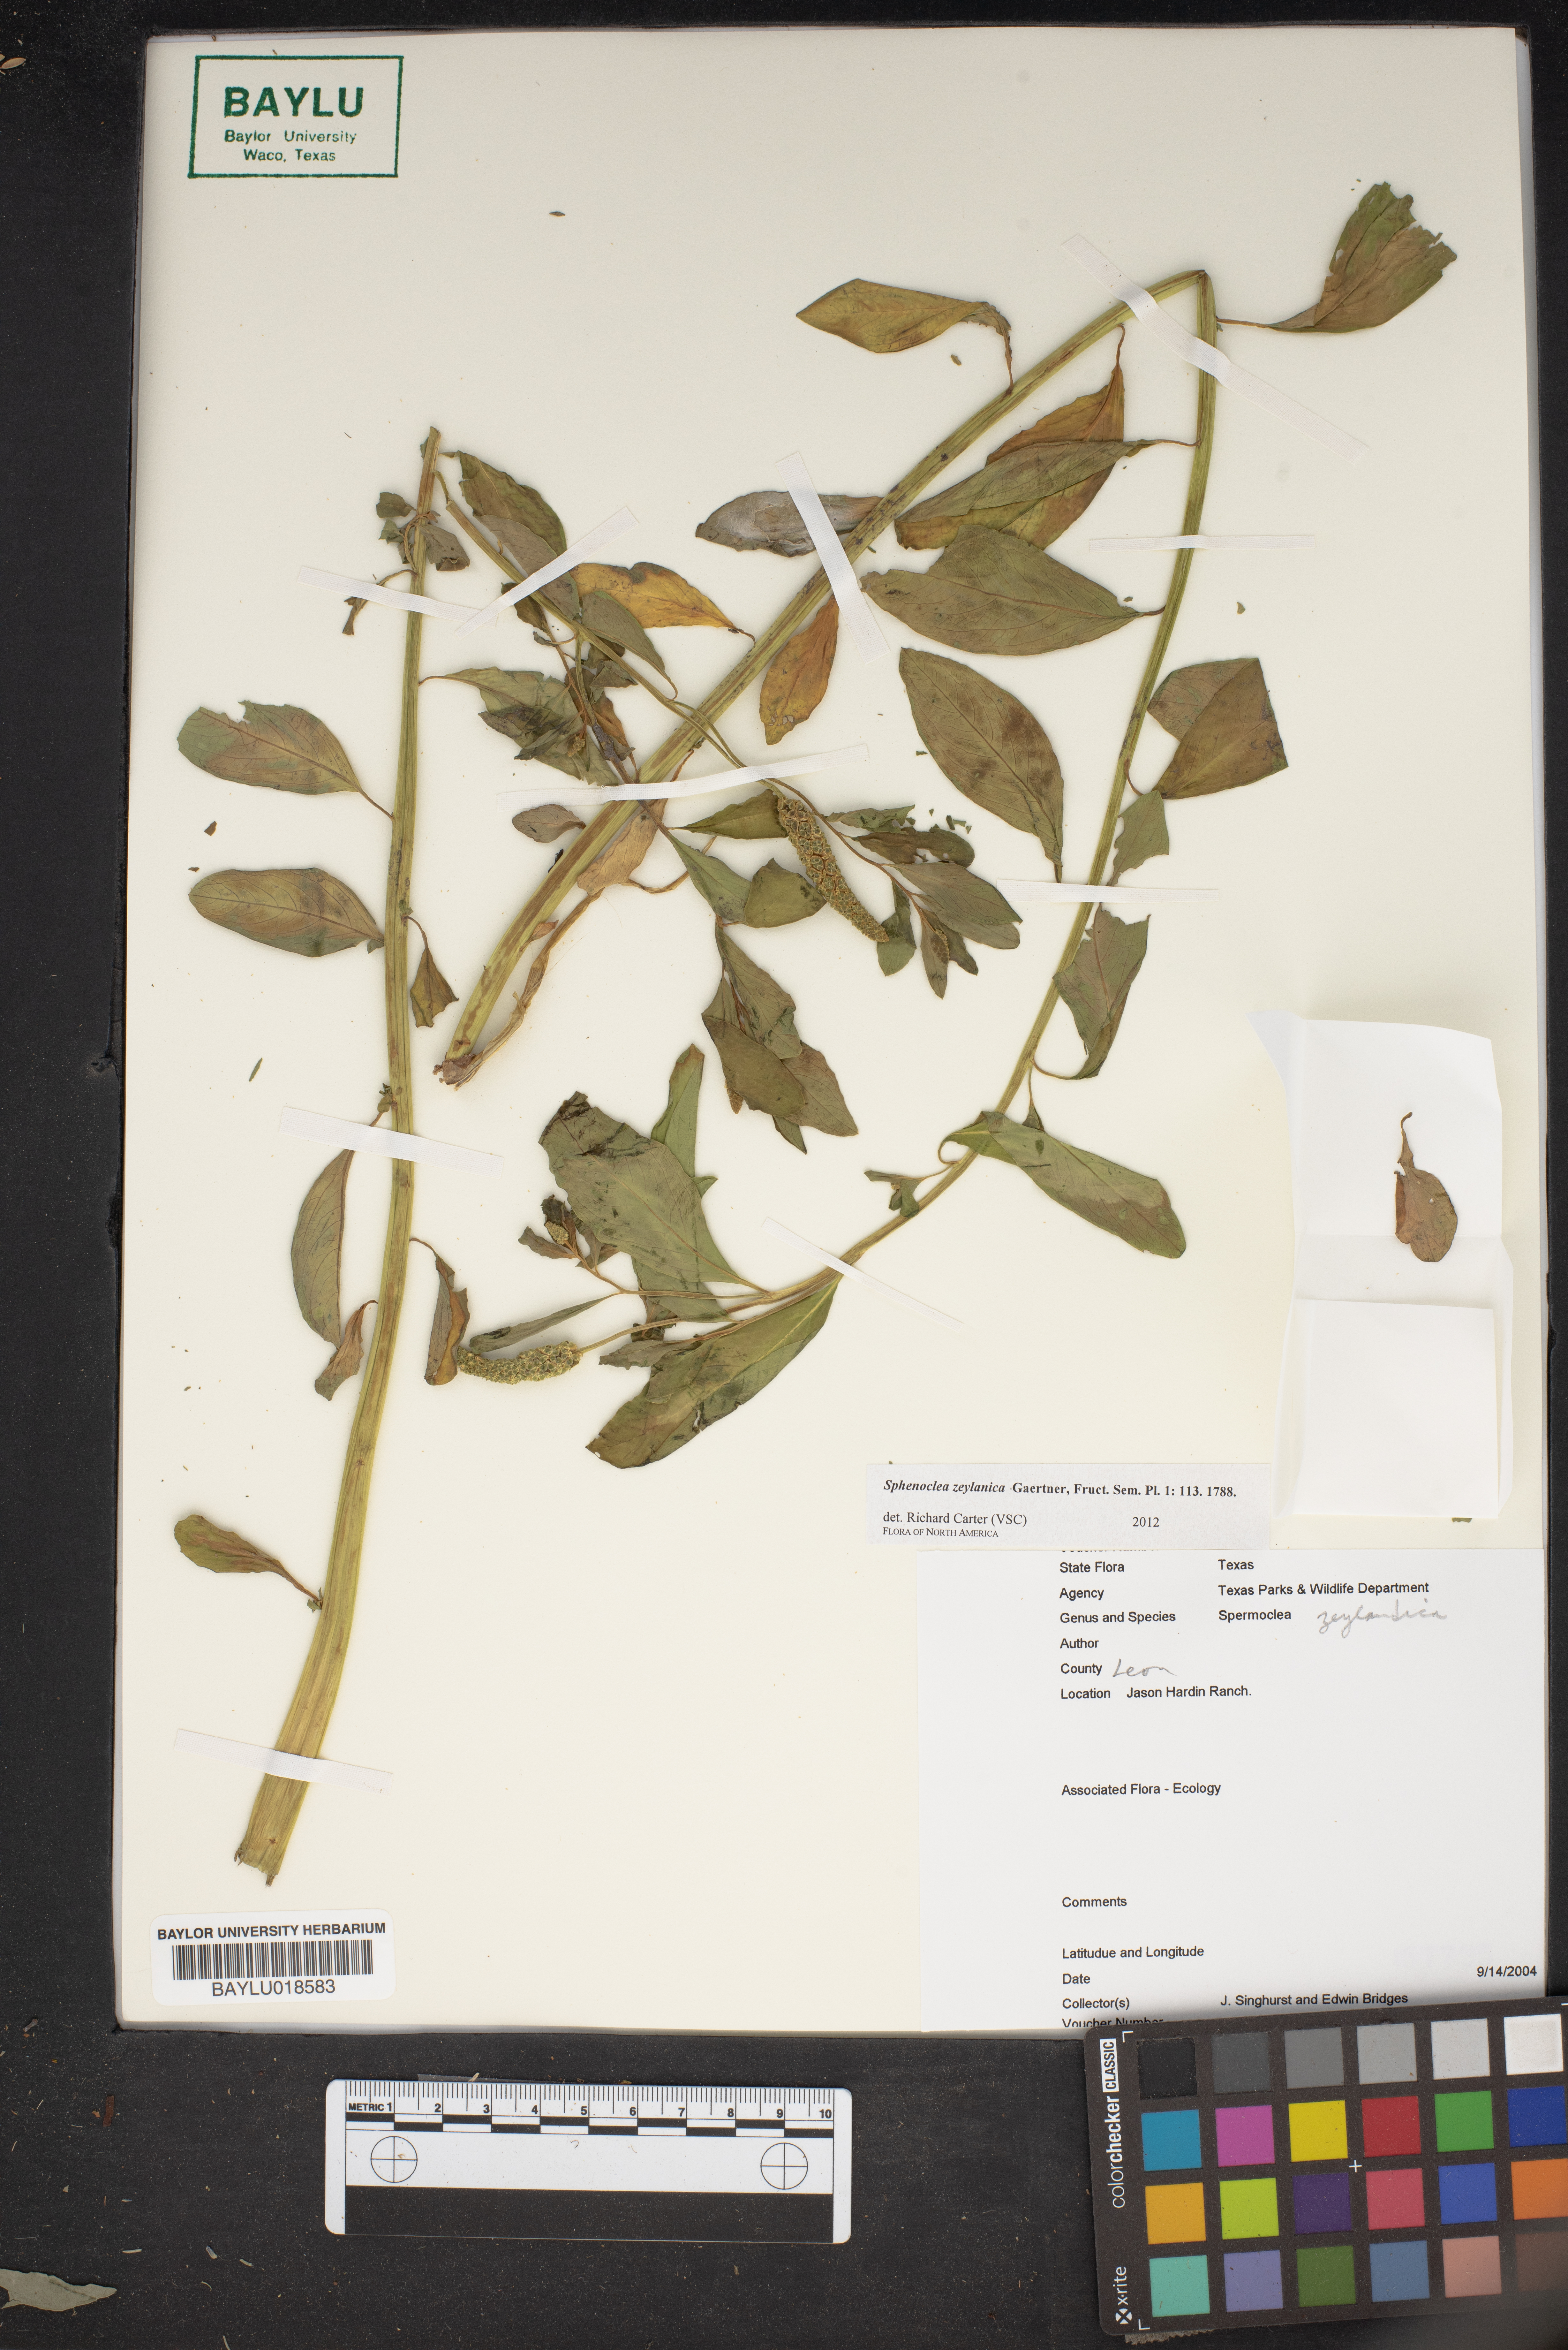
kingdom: Plantae
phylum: Tracheophyta
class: Magnoliopsida
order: Solanales
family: Sphenocleaceae
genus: Sphenoclea
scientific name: Sphenoclea zeylanica
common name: Chickenspike
